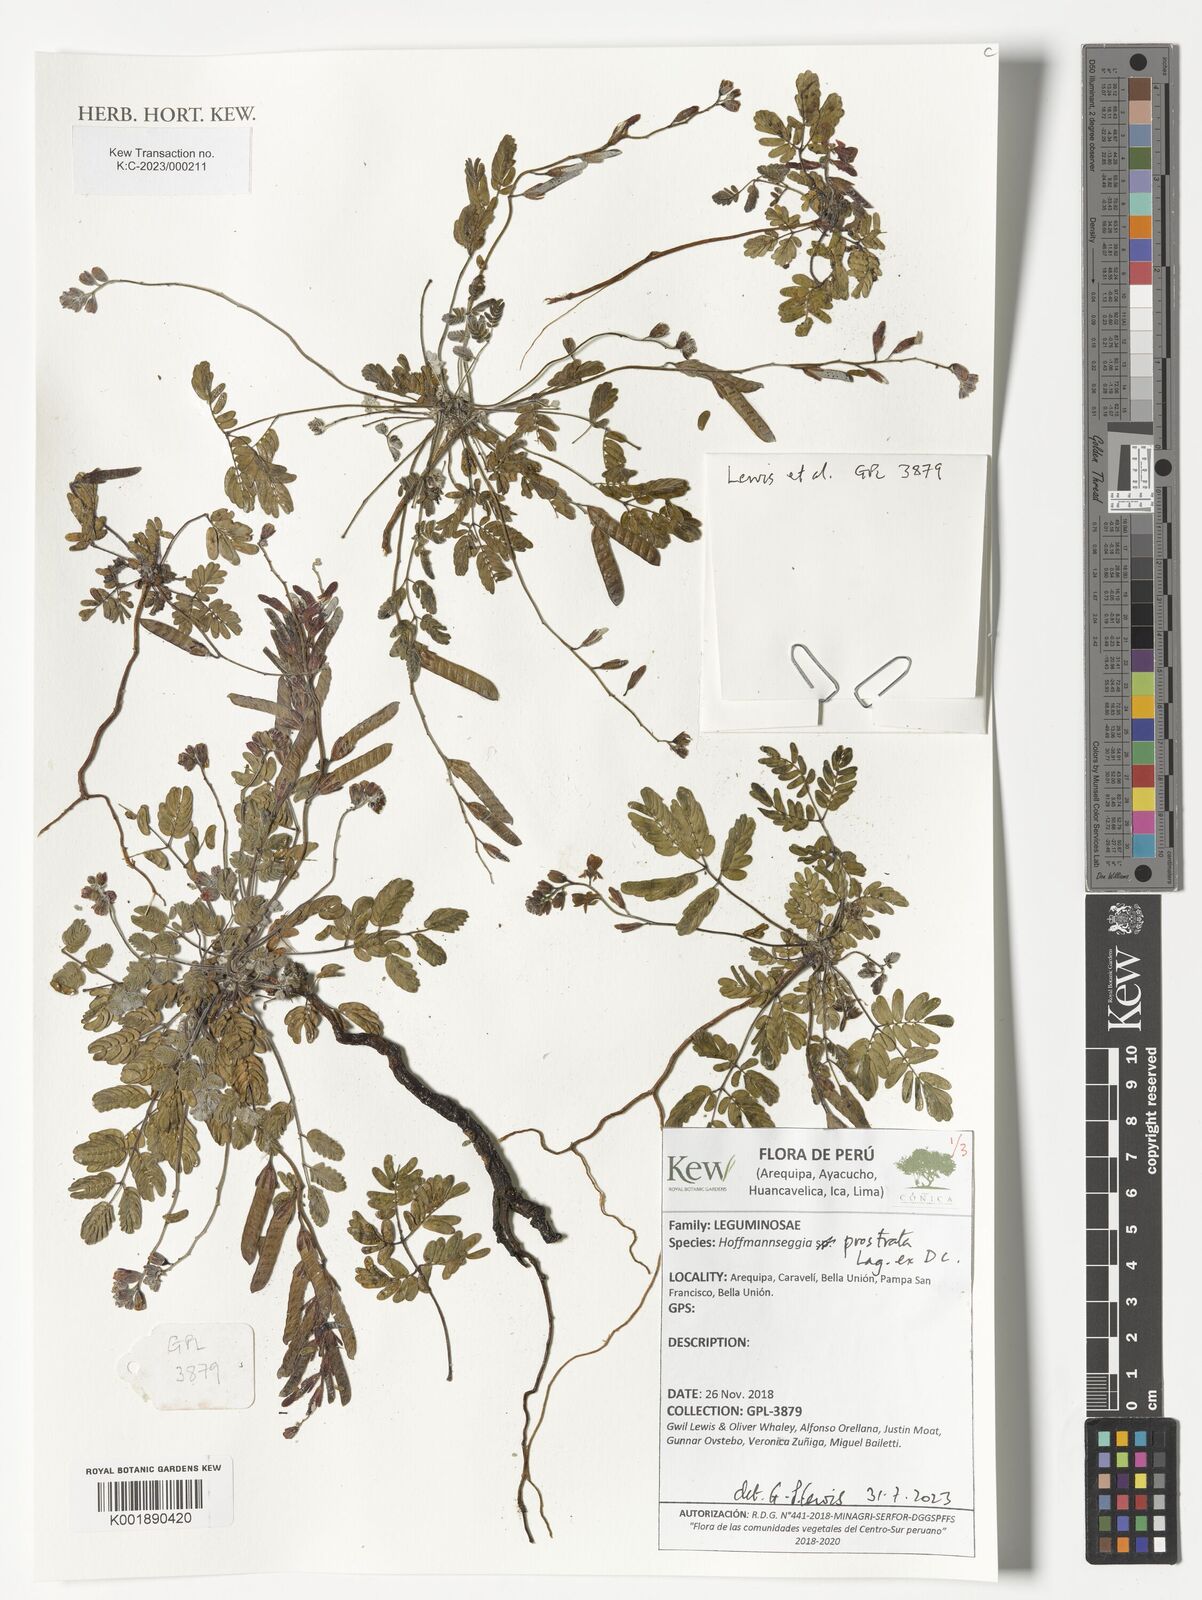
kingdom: Plantae
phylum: Tracheophyta
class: Magnoliopsida
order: Fabales
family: Fabaceae
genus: Hoffmannseggia
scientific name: Hoffmannseggia prostrata
